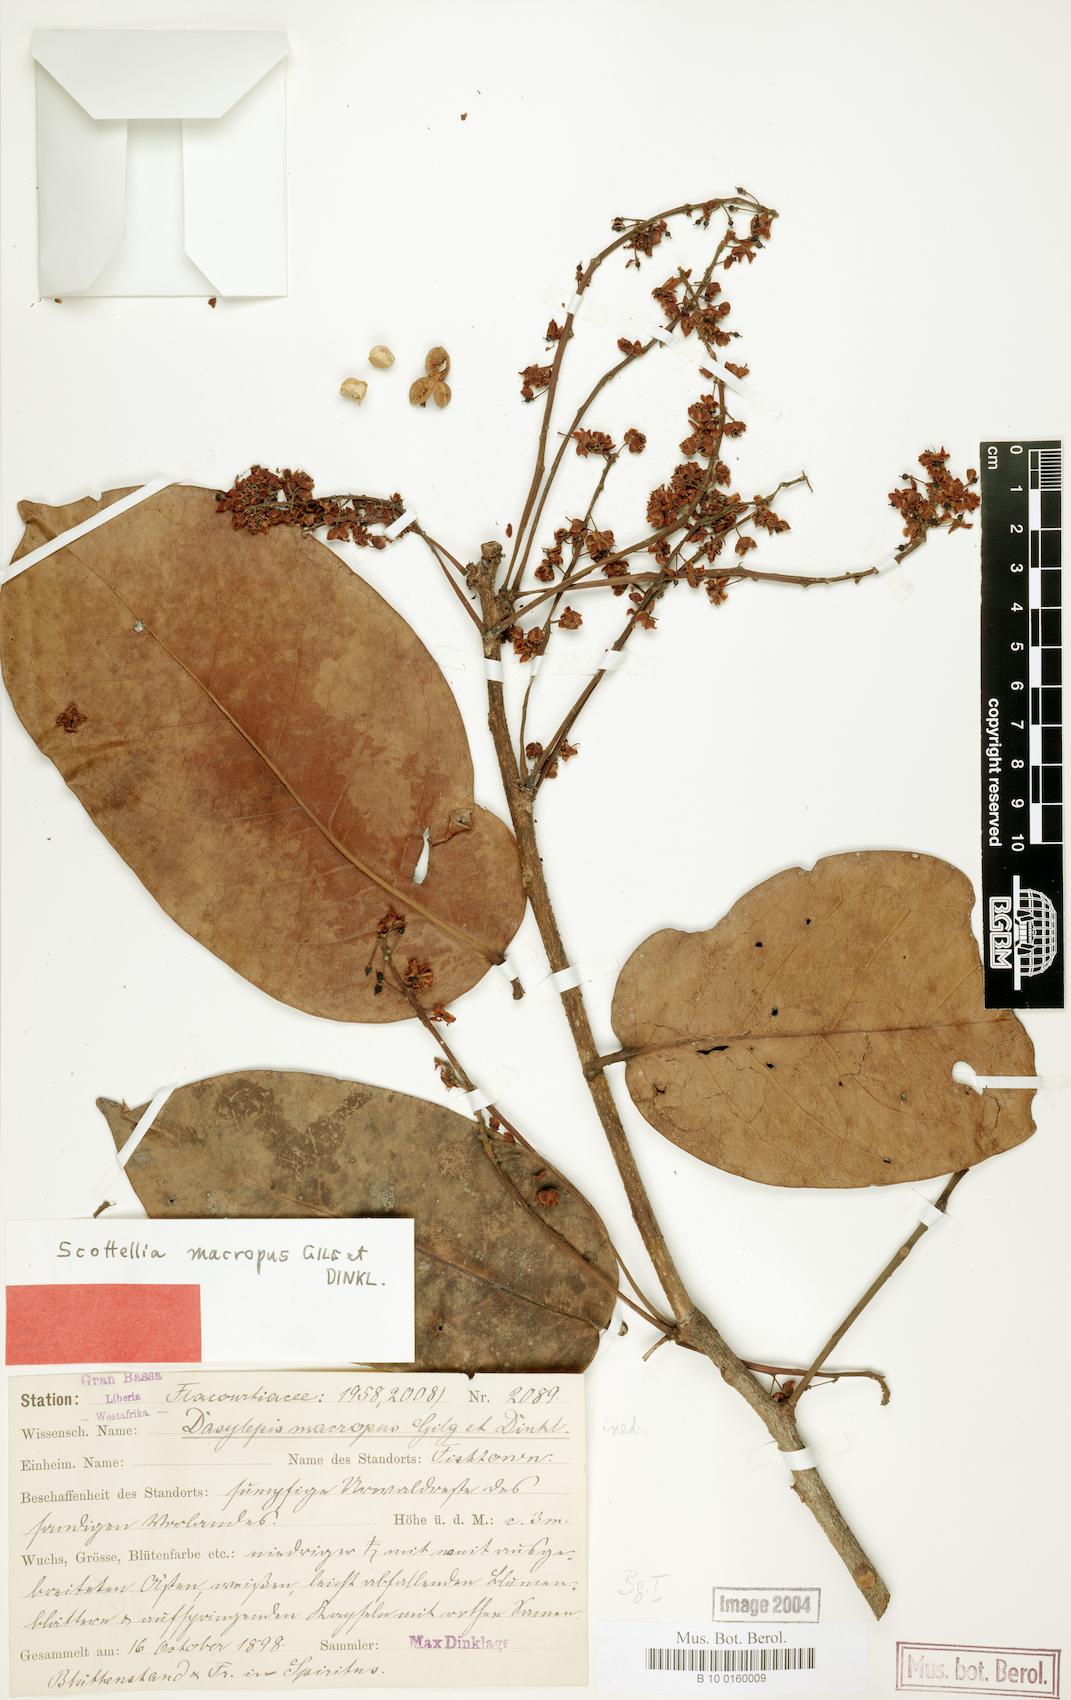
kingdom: Plantae
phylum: Tracheophyta
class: Magnoliopsida
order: Malpighiales
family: Achariaceae
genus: Scottellia
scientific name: Scottellia leonensis
